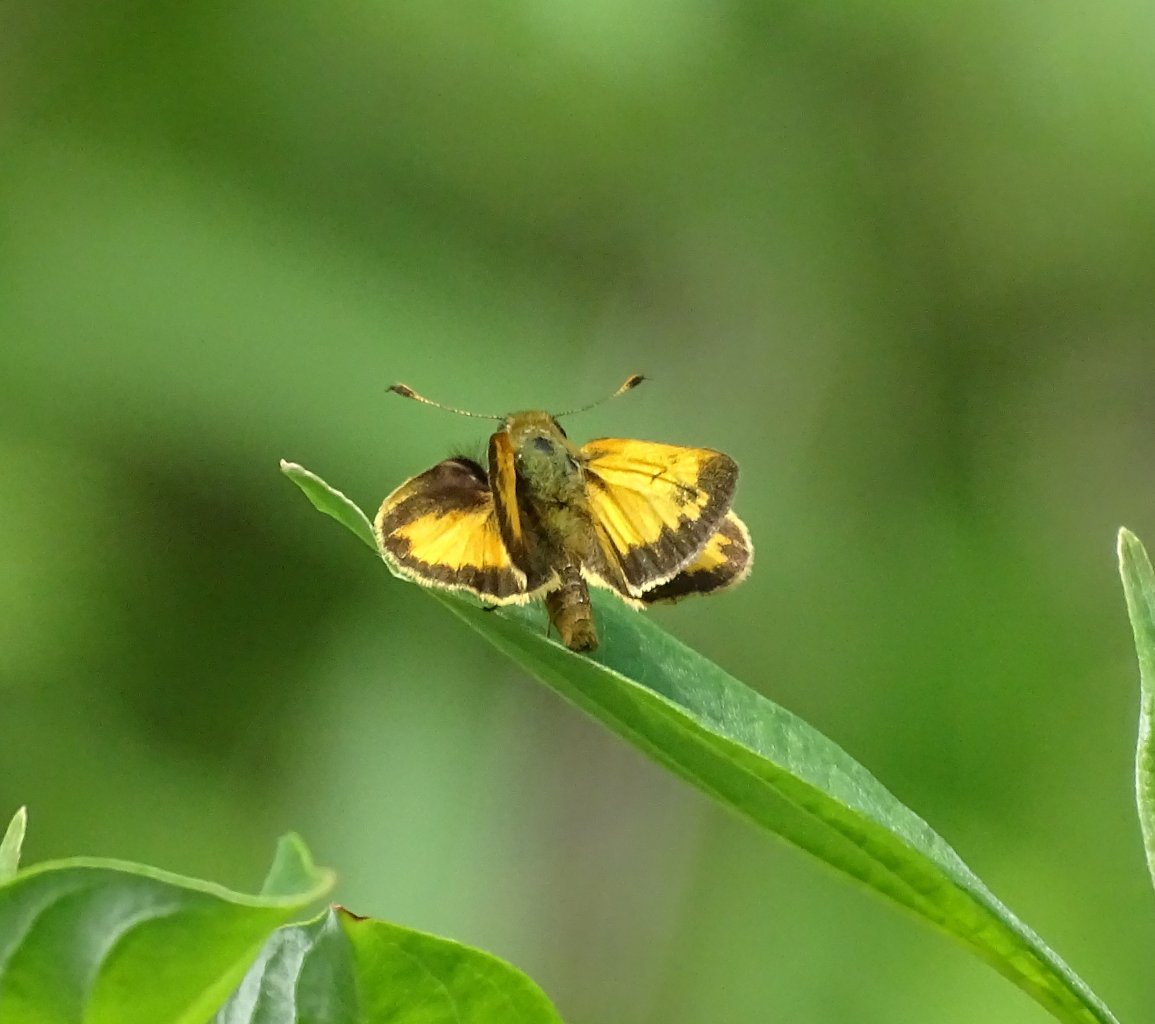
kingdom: Animalia
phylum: Arthropoda
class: Insecta
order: Lepidoptera
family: Hesperiidae
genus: Lon
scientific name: Lon zabulon
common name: Zabulon Skipper
